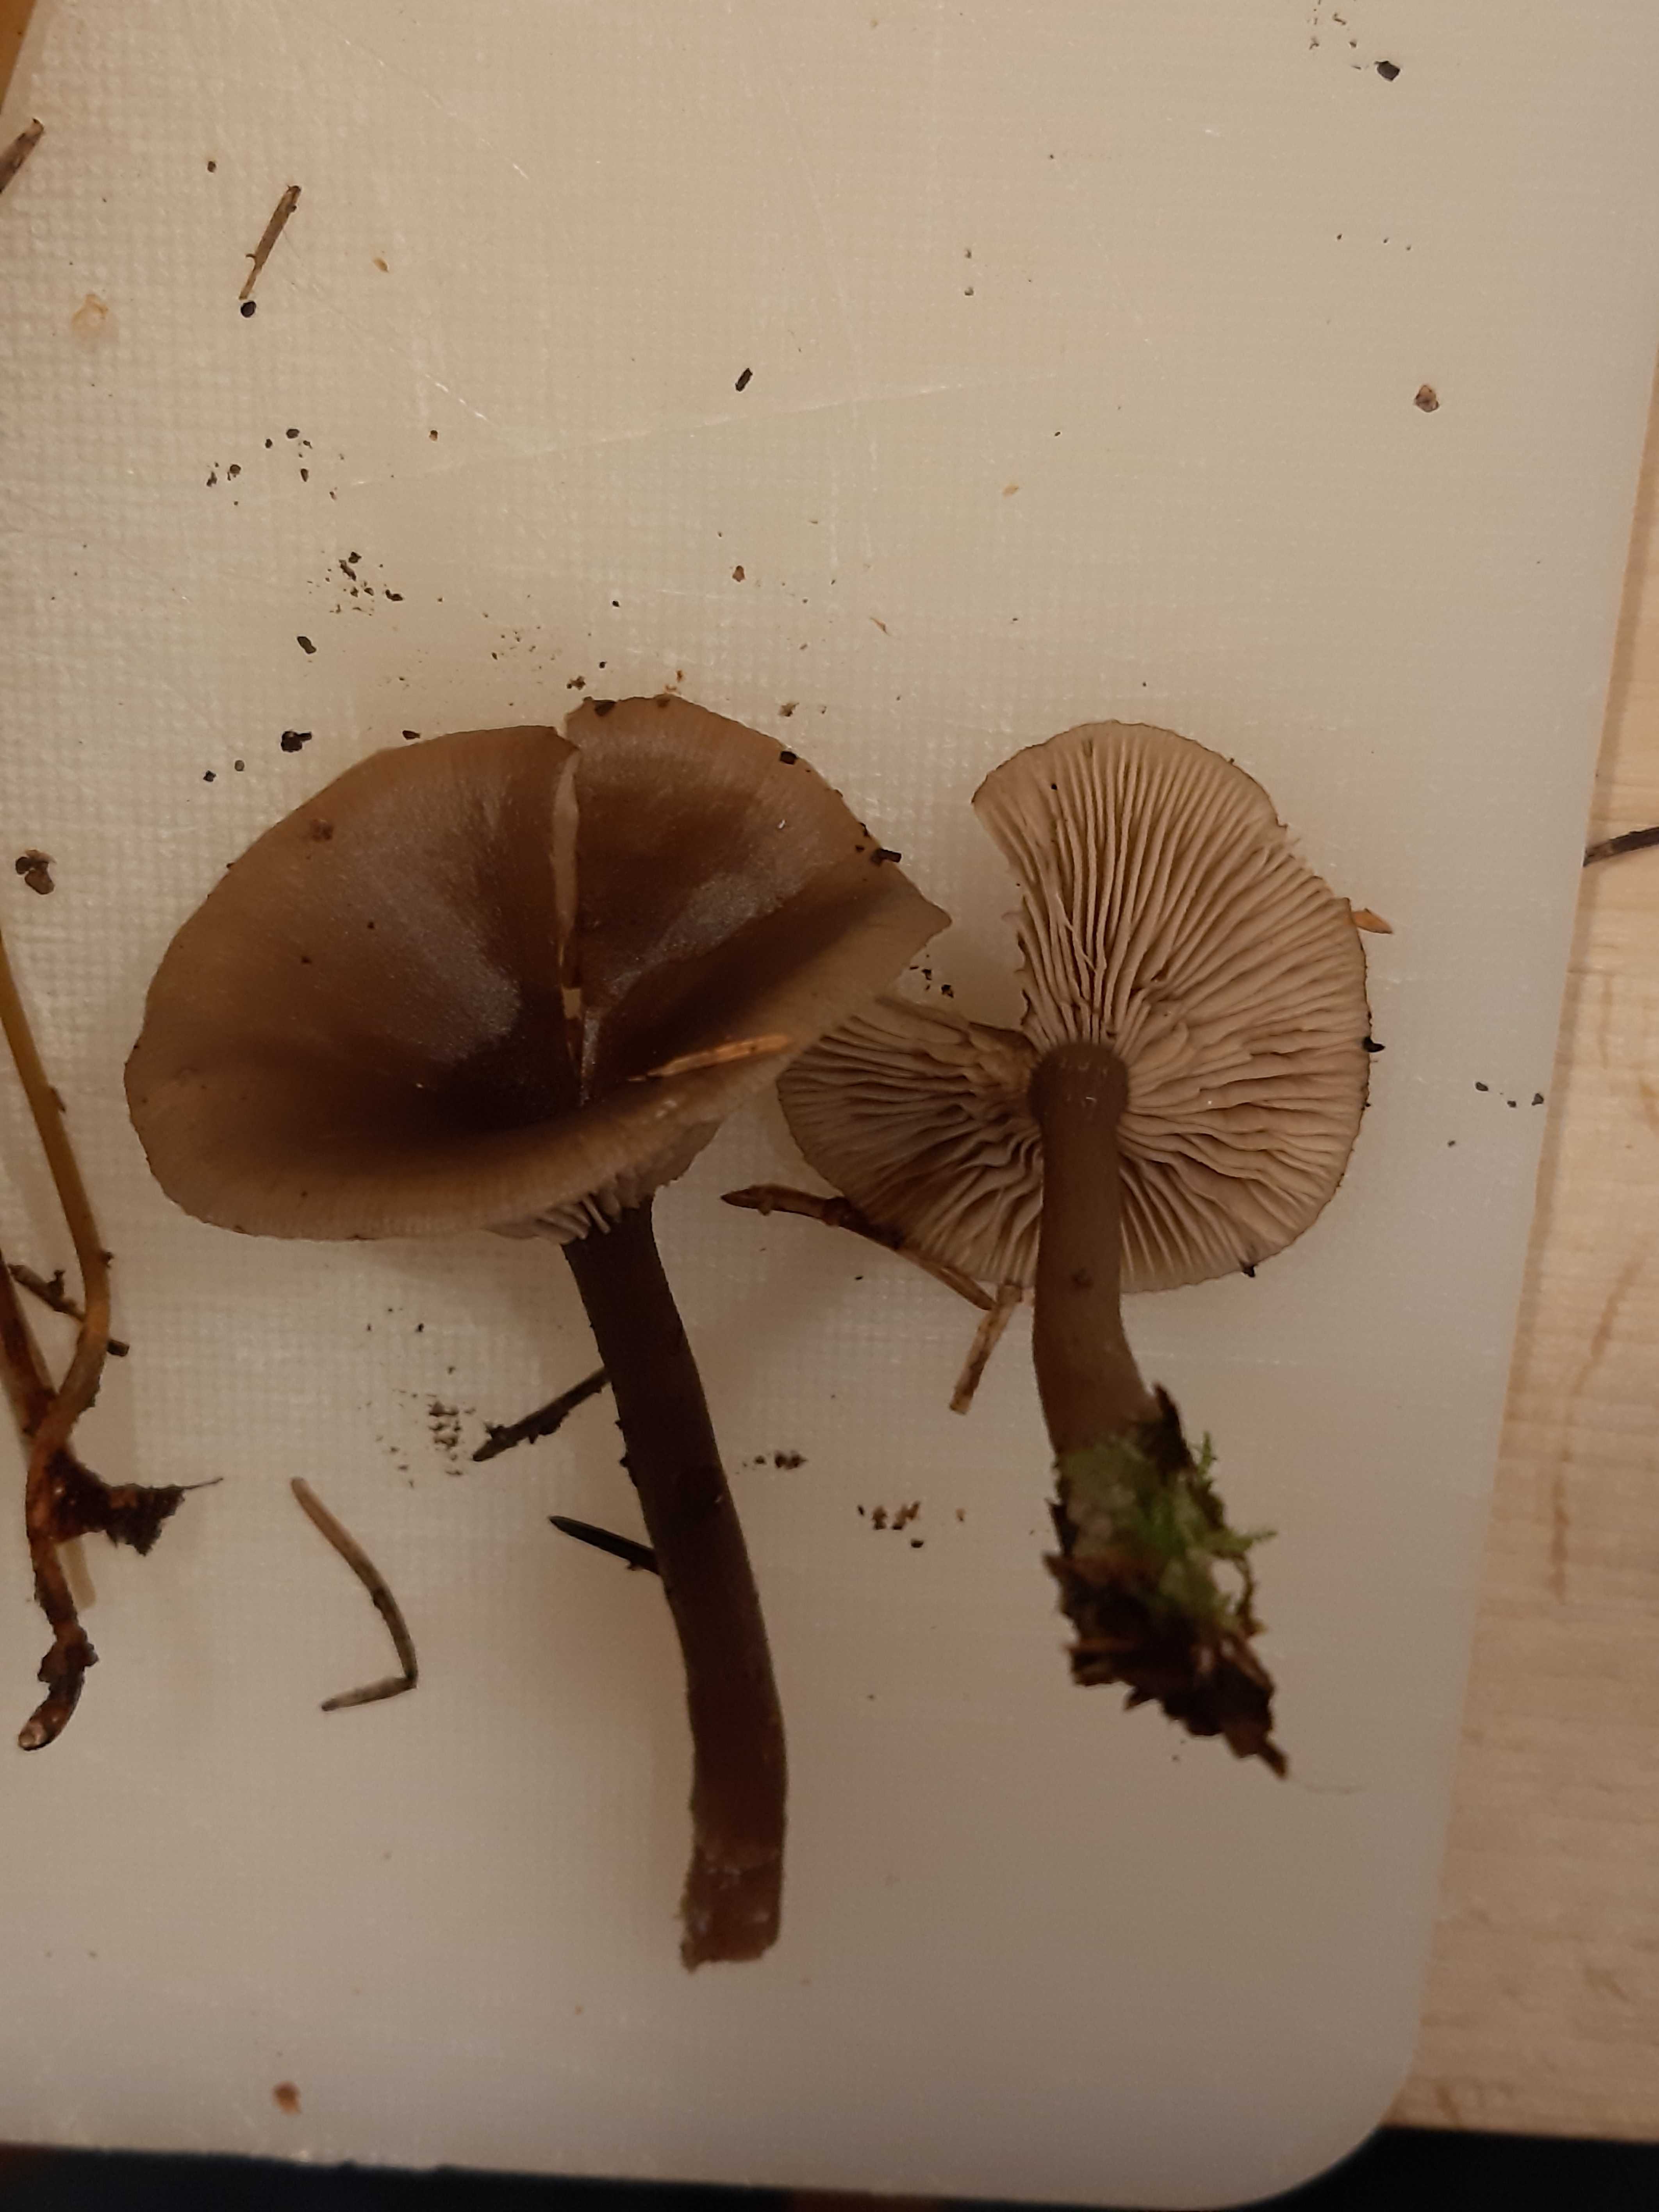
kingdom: Fungi
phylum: Basidiomycota
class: Agaricomycetes
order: Agaricales
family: Pseudoclitocybaceae
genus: Pseudoclitocybe
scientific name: Pseudoclitocybe cyathiformis
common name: almindelig bægertragthat
